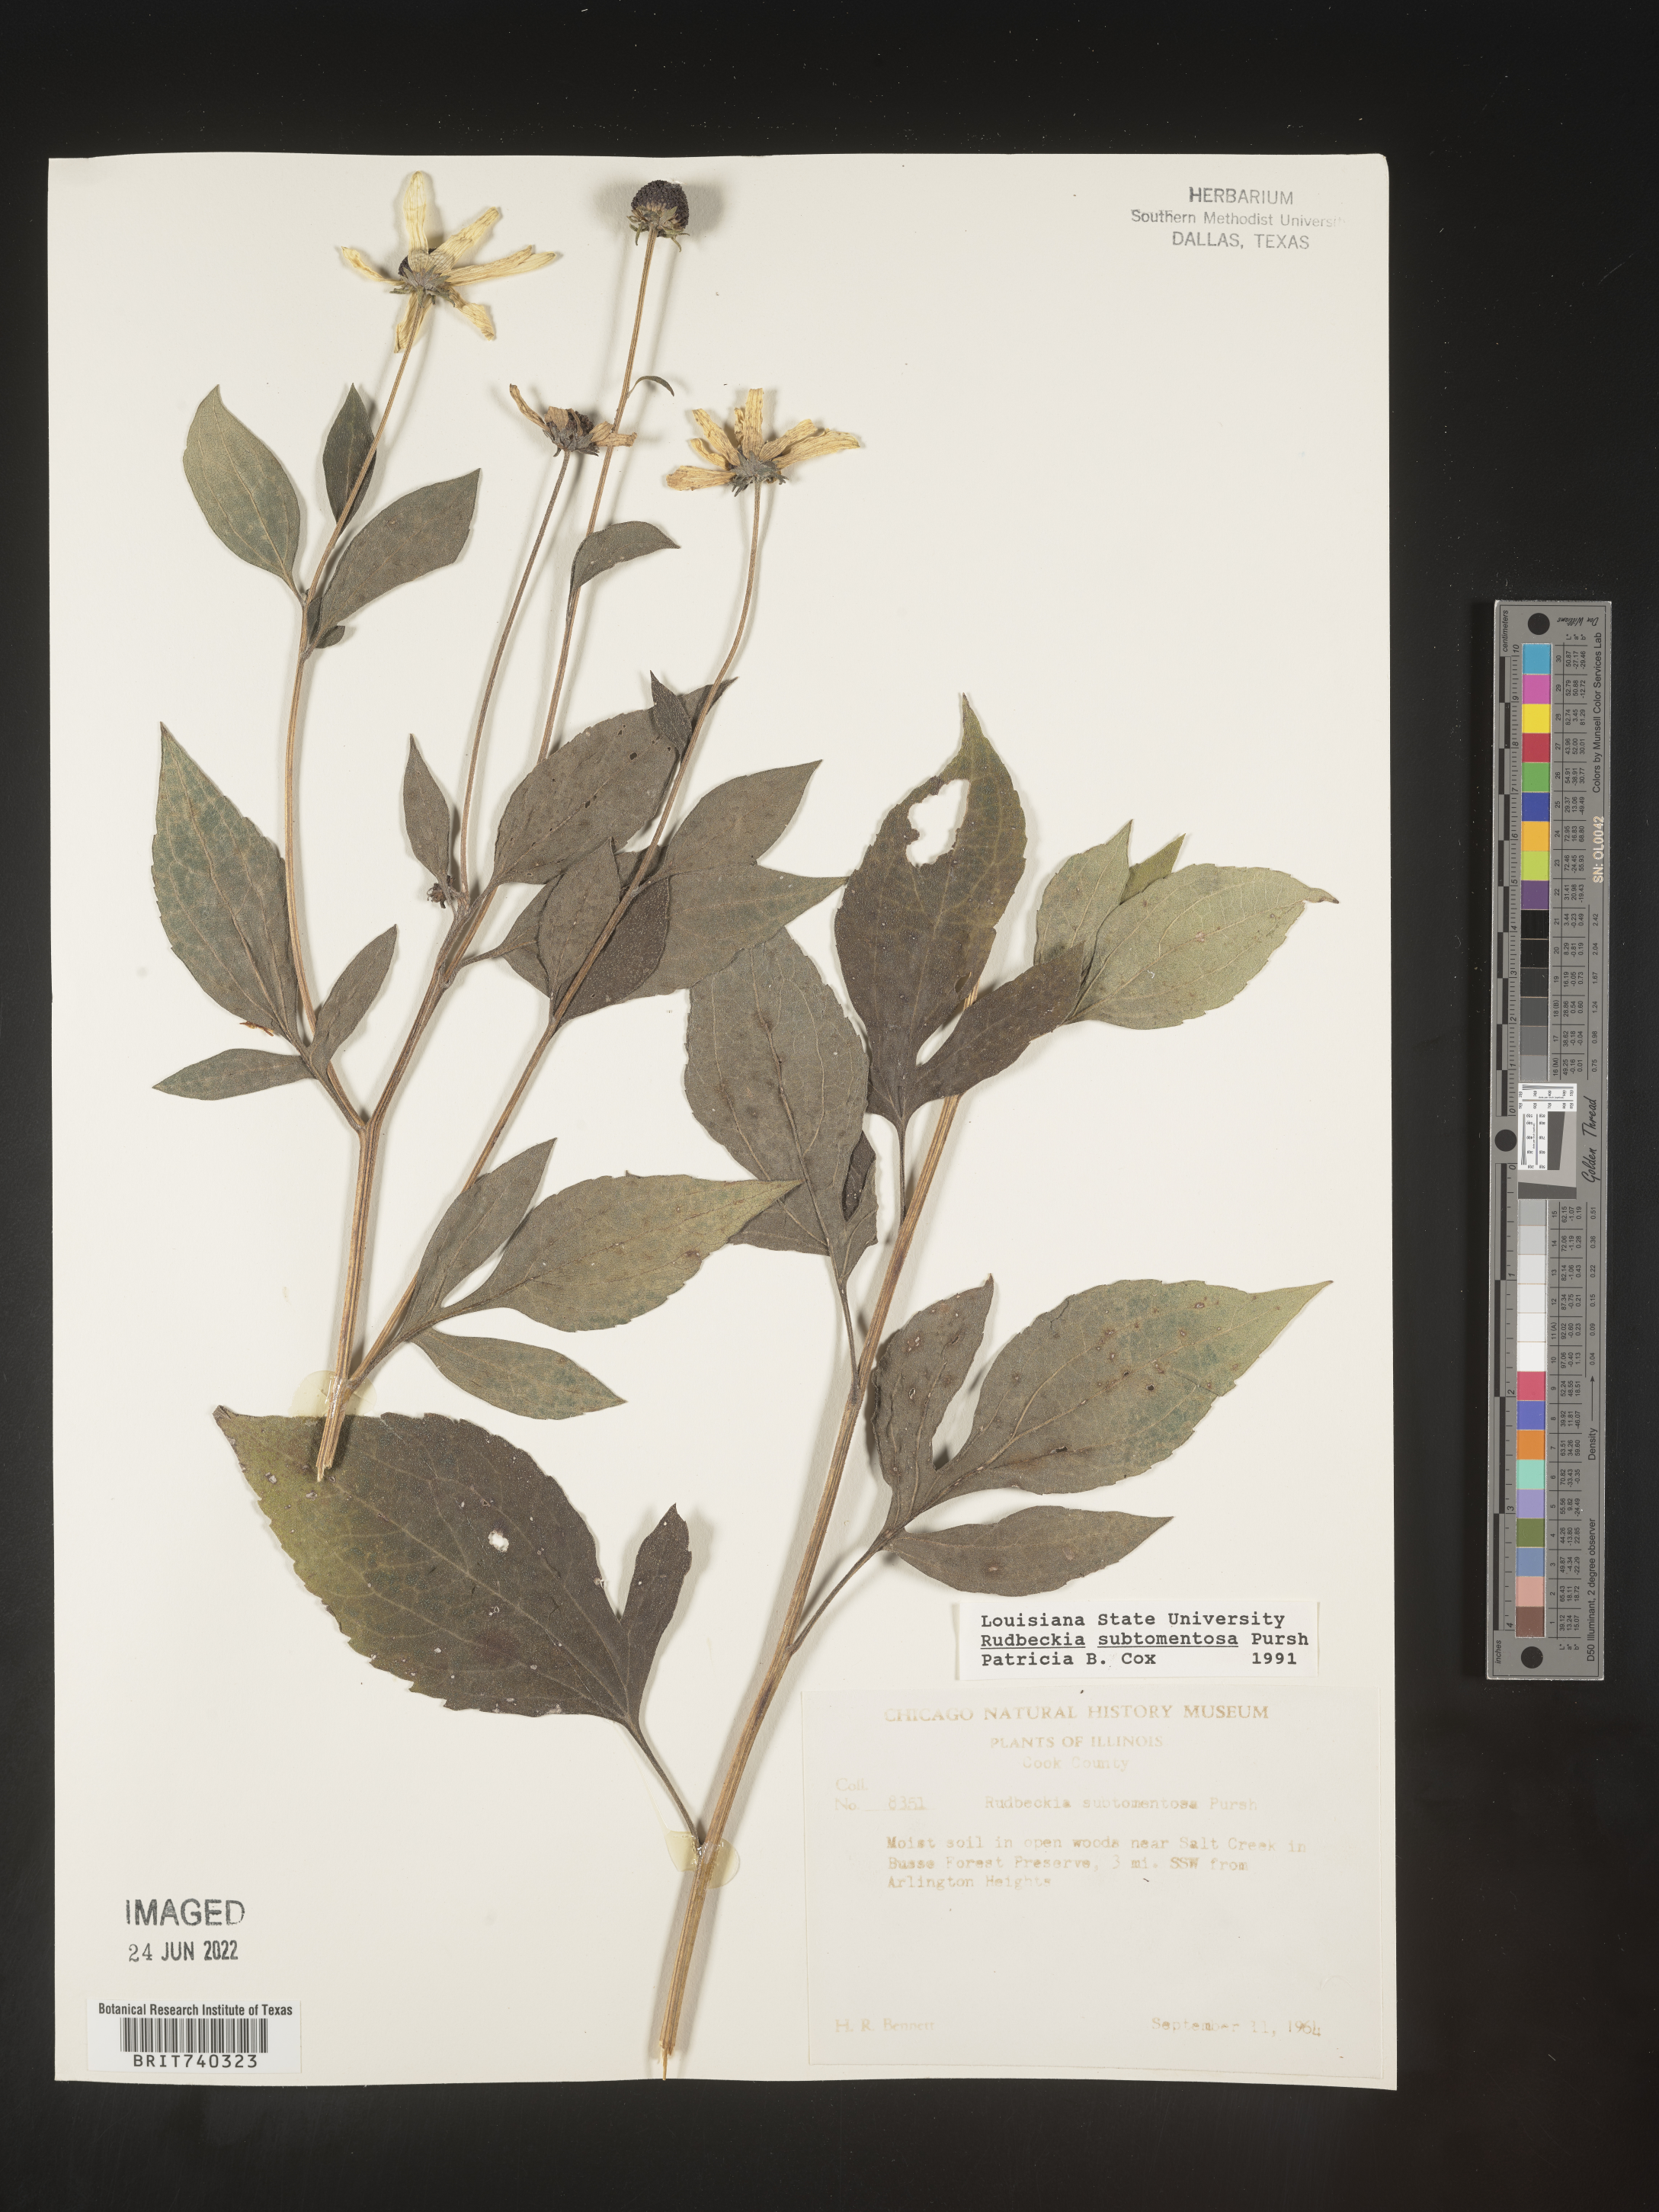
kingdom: Plantae
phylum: Tracheophyta
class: Magnoliopsida
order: Asterales
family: Asteraceae
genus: Rudbeckia
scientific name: Rudbeckia subtomentosa
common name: Sweet coneflower
